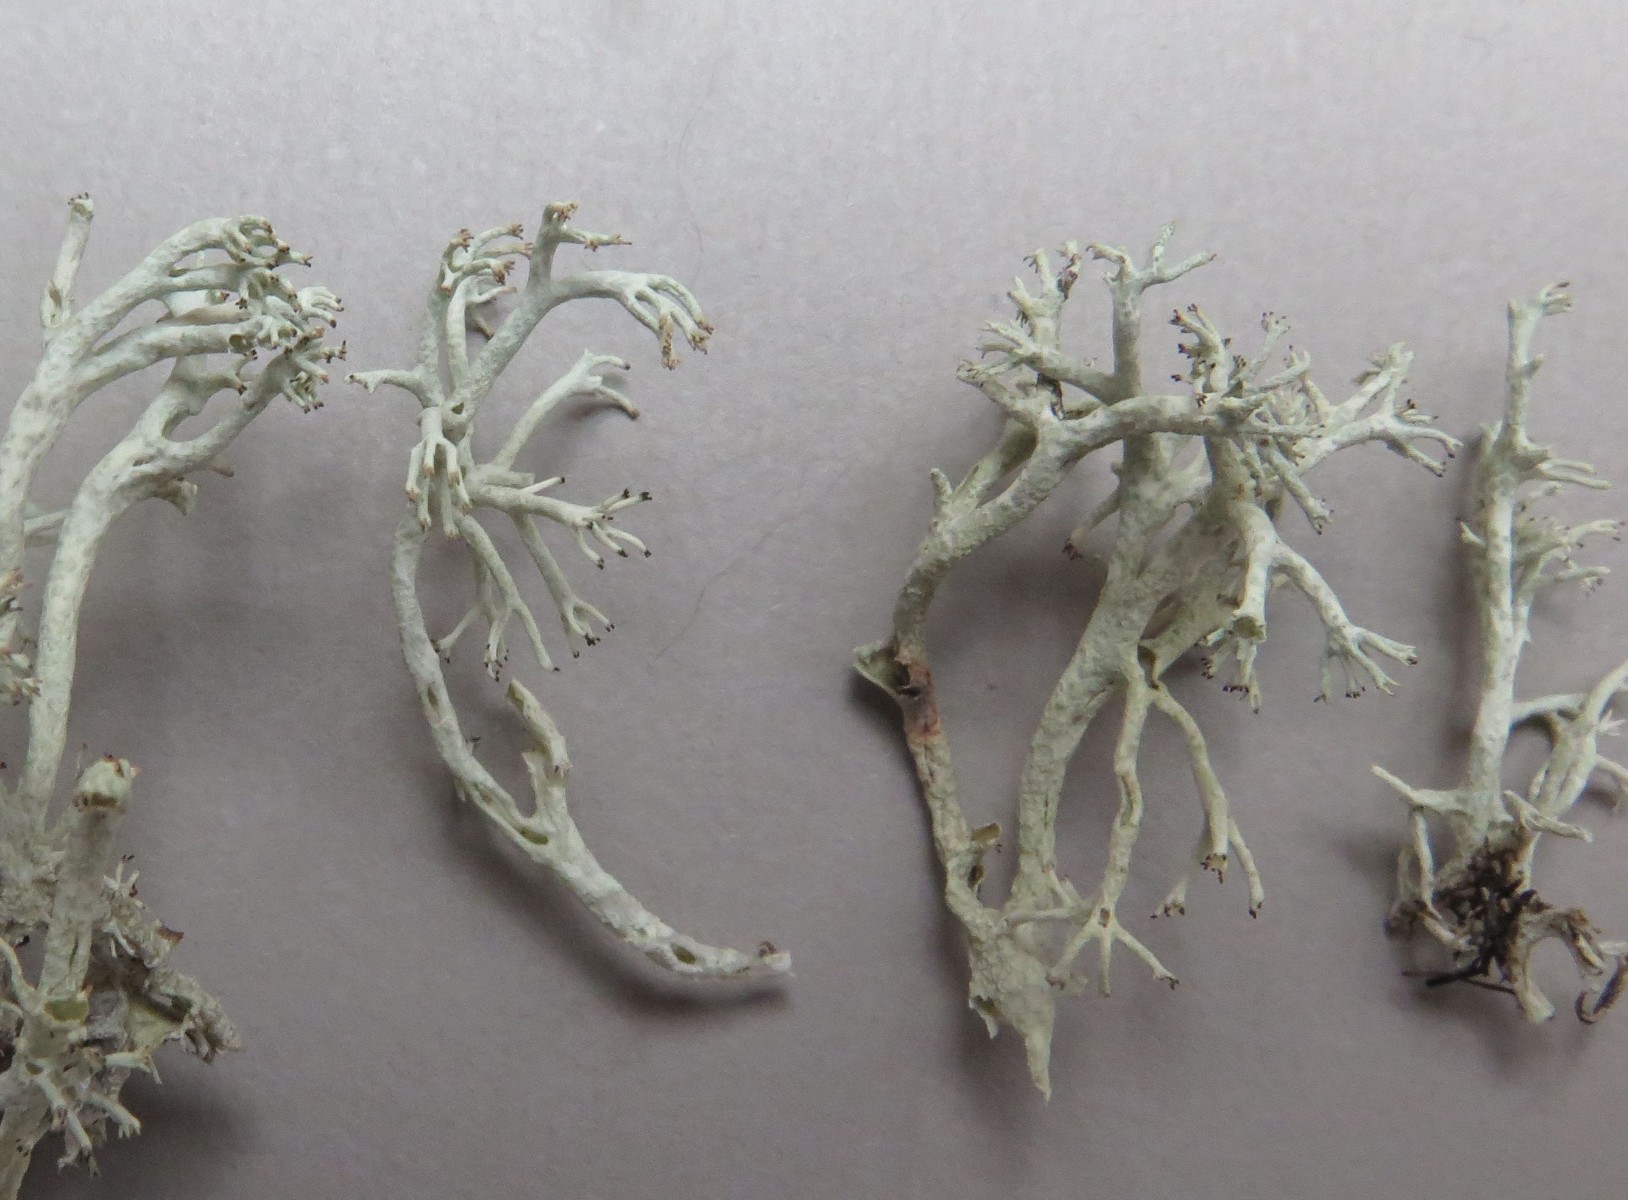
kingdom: Fungi
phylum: Ascomycota
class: Lecanoromycetes
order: Lecanorales
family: Cladoniaceae
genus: Cladonia
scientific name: Cladonia
